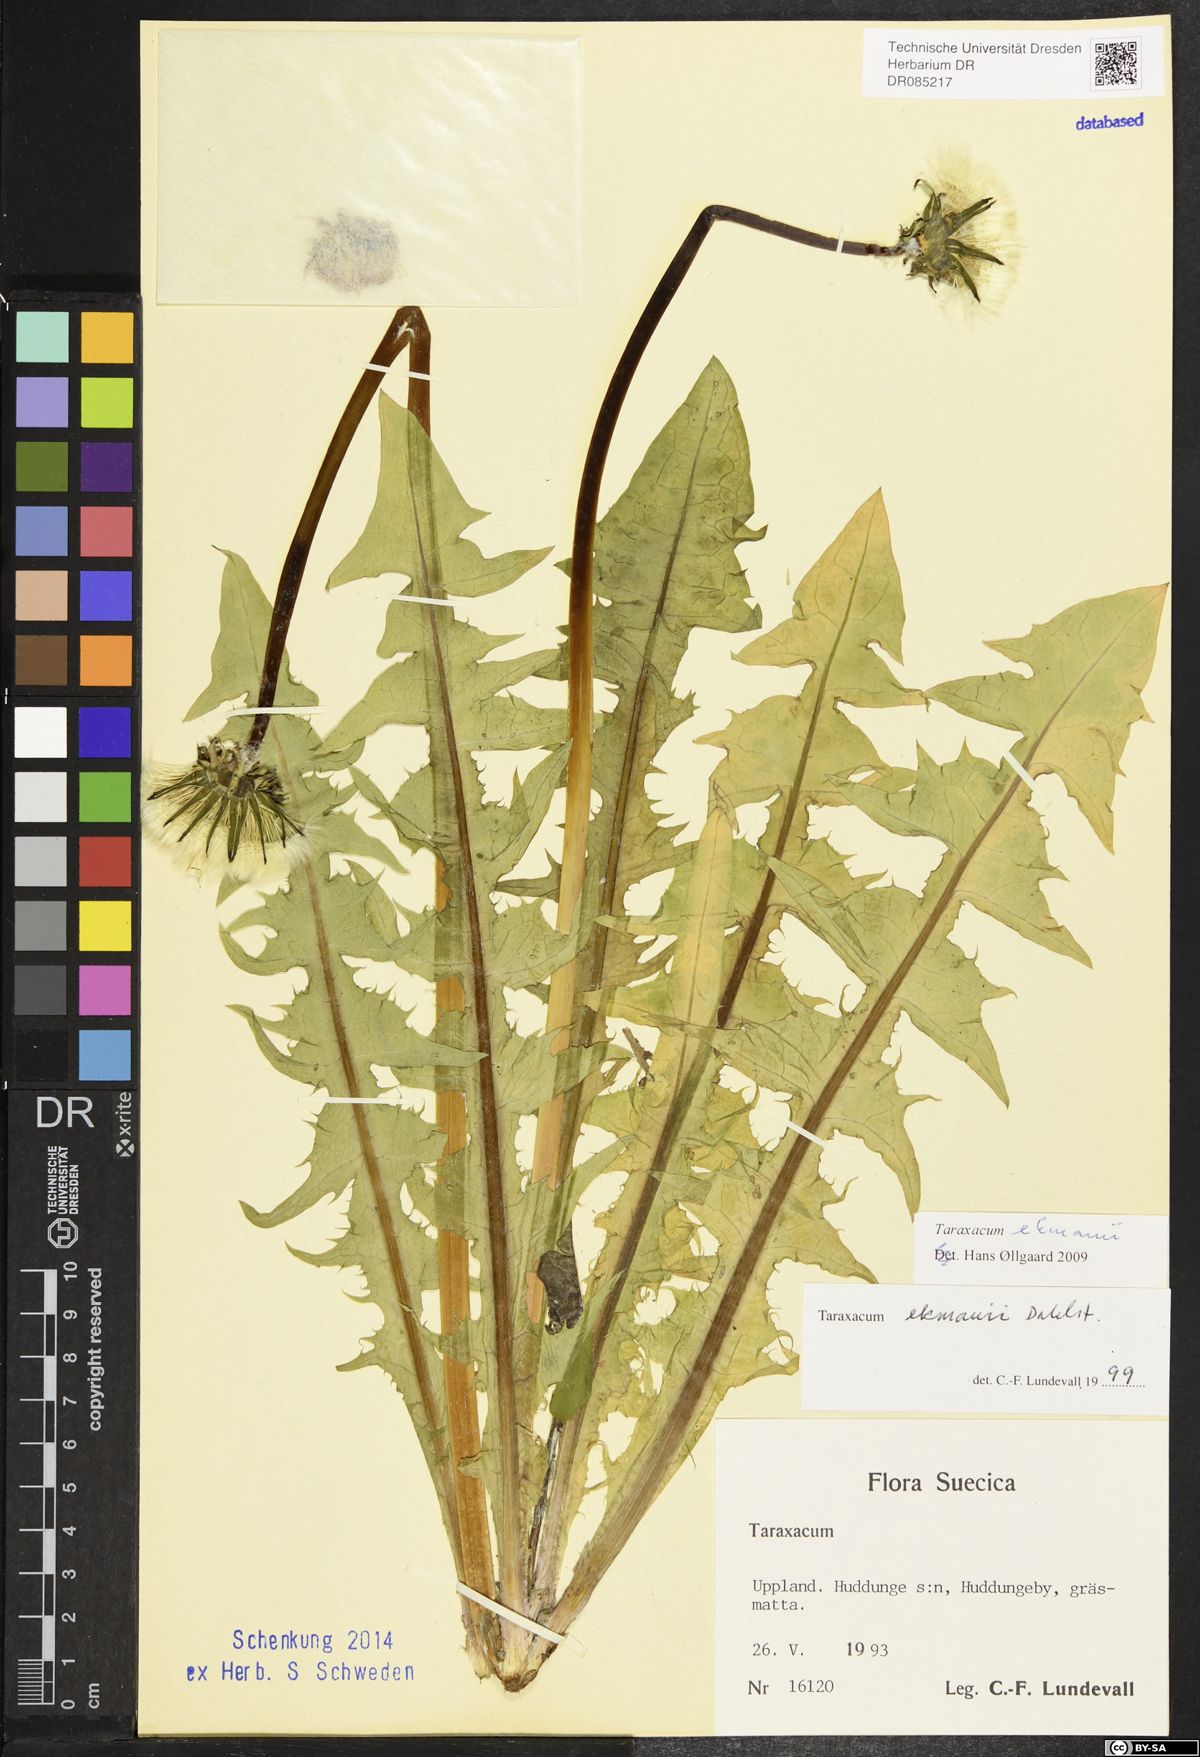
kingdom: Plantae
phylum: Tracheophyta
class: Magnoliopsida
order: Asterales
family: Asteraceae
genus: Taraxacum
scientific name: Taraxacum ekmanii
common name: Ekman's dandelion
